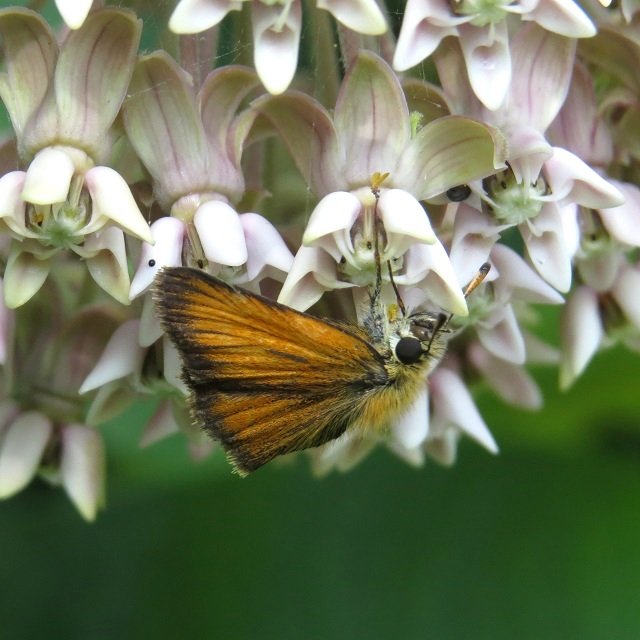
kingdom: Animalia
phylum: Arthropoda
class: Insecta
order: Lepidoptera
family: Hesperiidae
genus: Thymelicus
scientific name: Thymelicus lineola
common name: European Skipper
